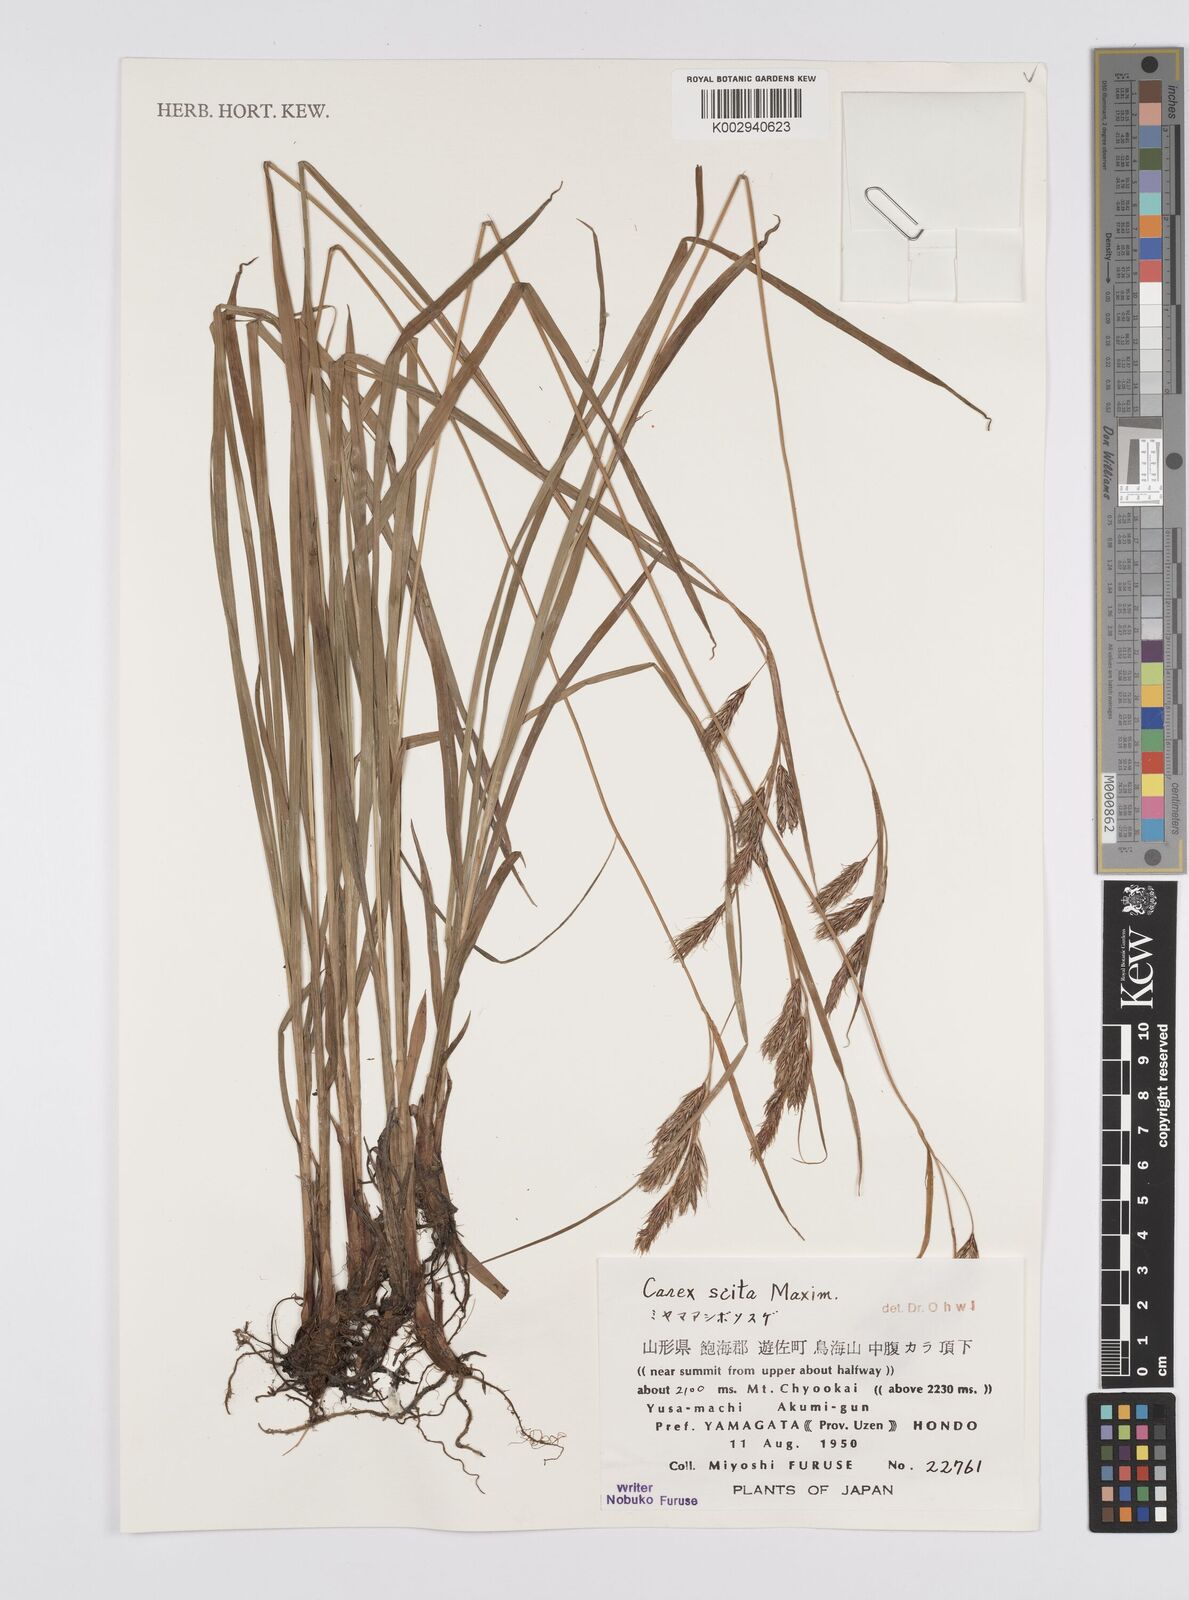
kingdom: Plantae
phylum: Tracheophyta
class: Liliopsida
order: Poales
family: Cyperaceae
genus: Carex
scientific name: Carex scita
